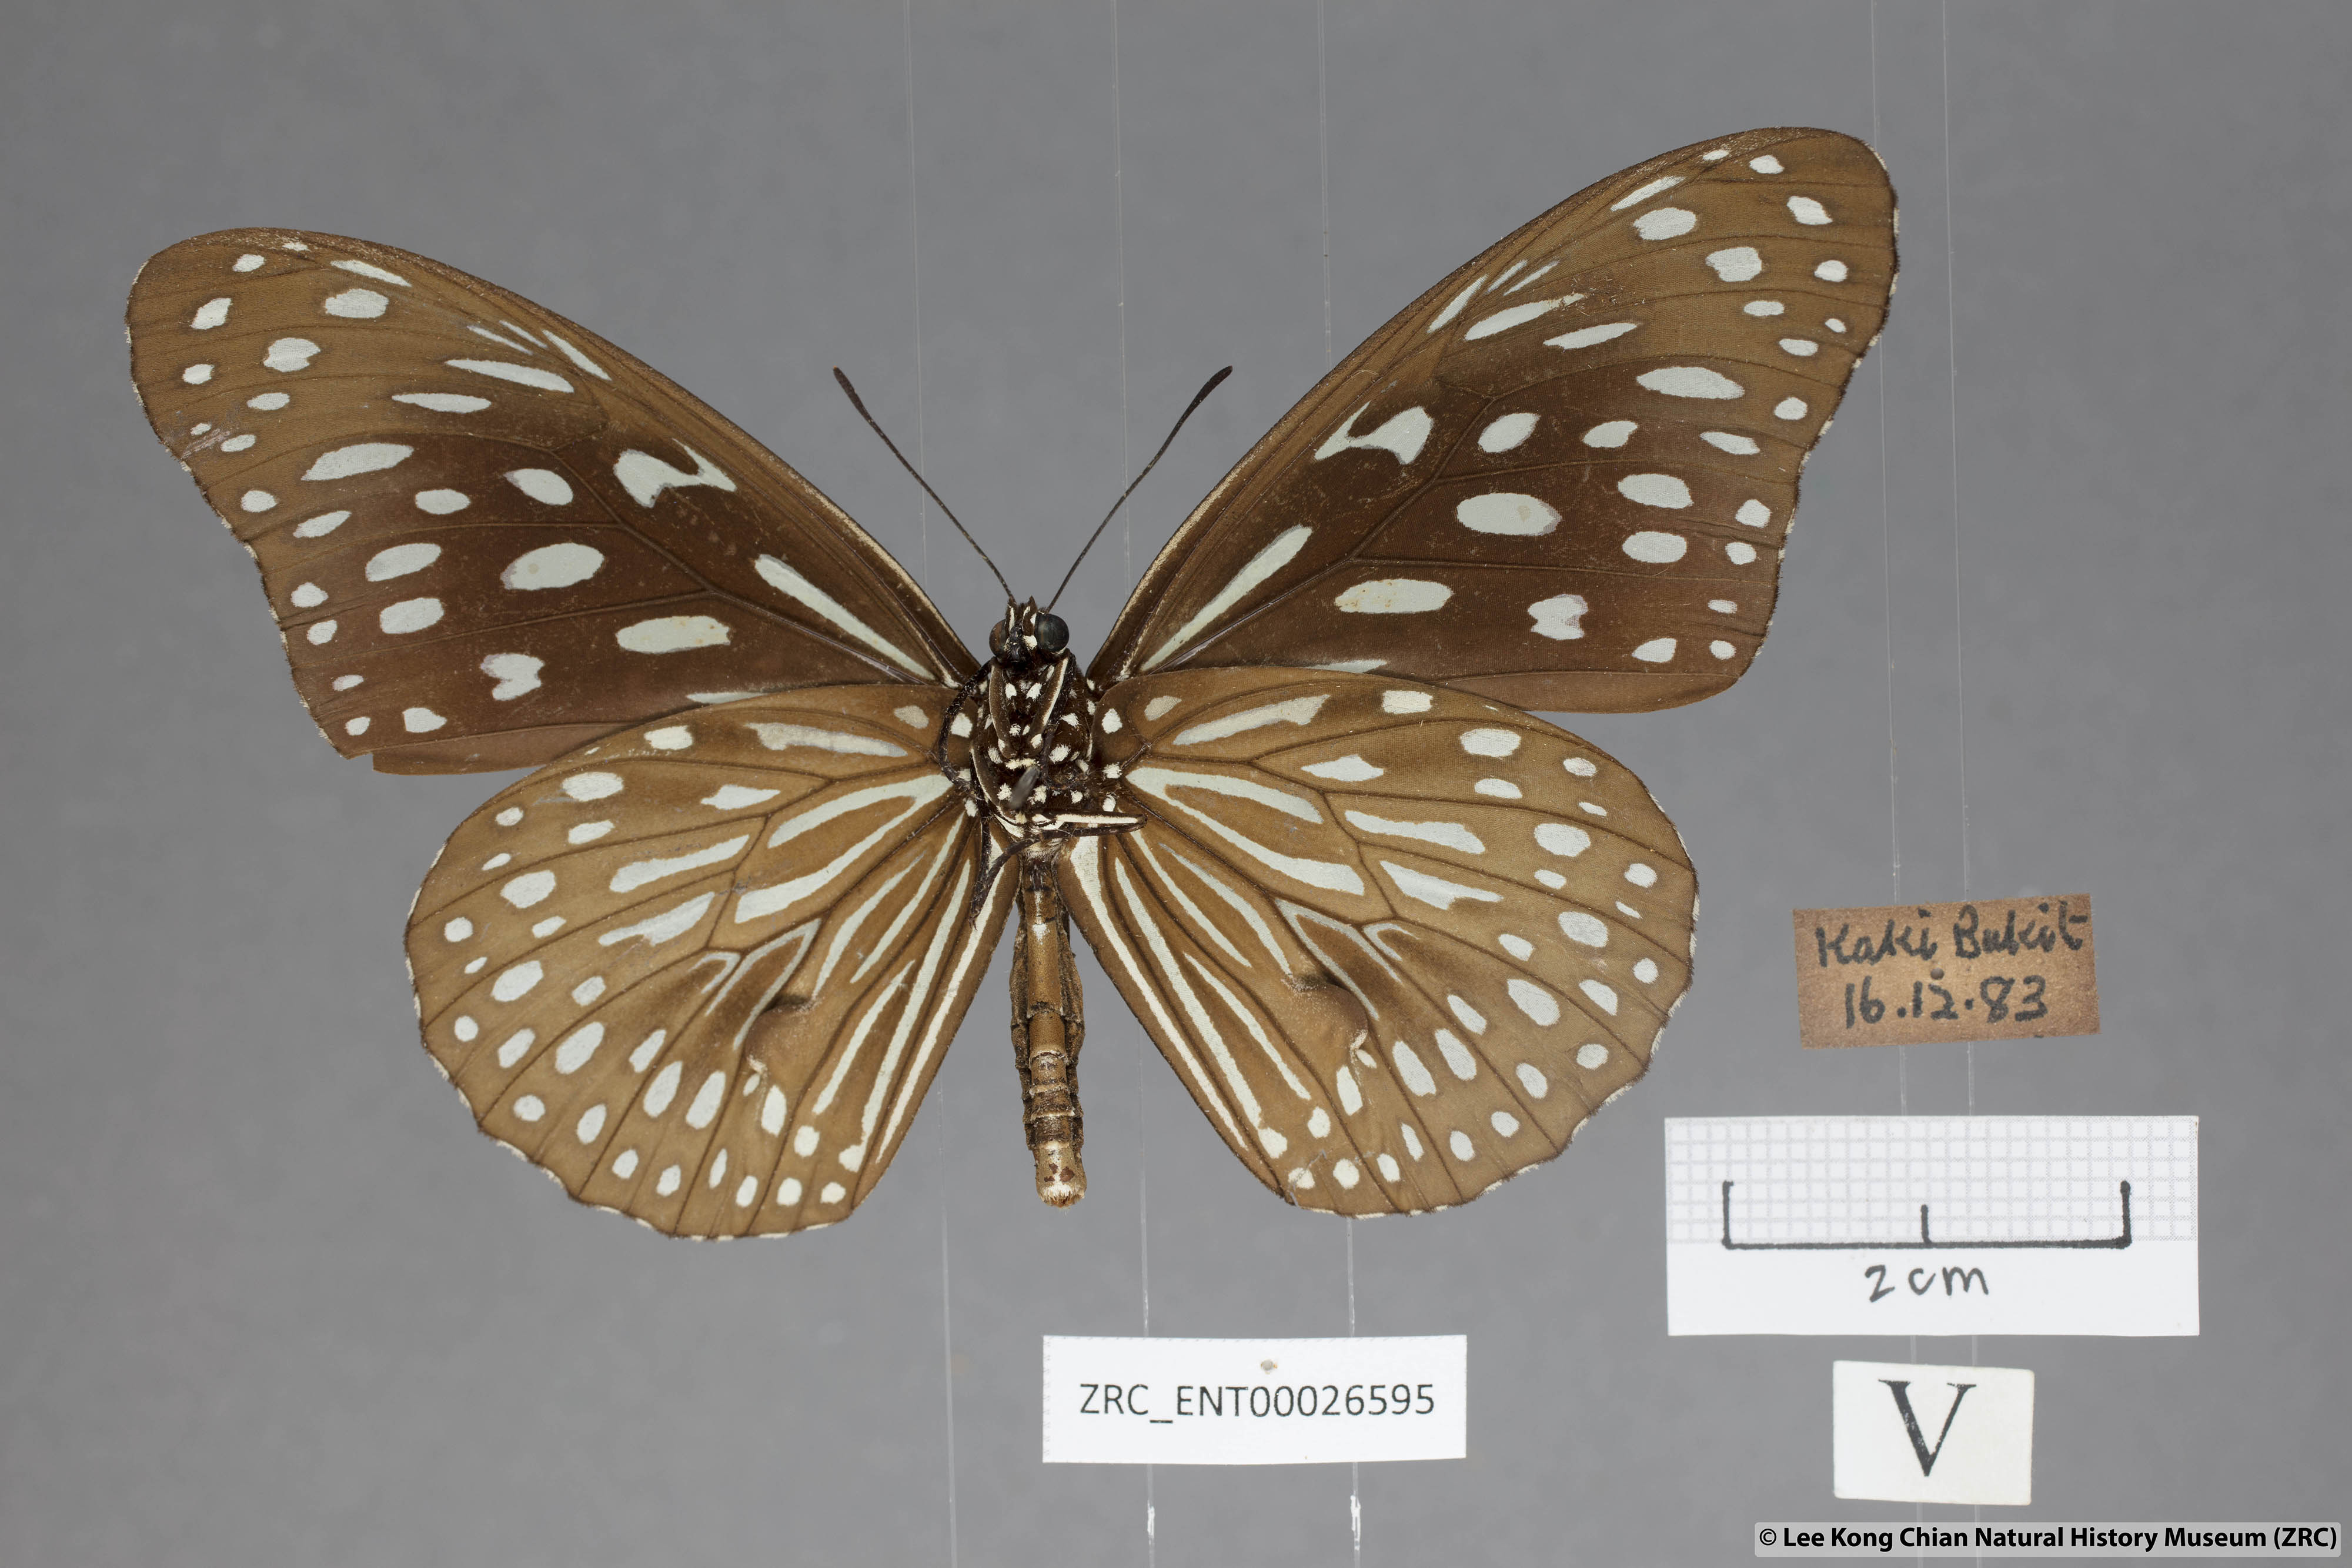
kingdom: Animalia
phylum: Arthropoda
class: Insecta
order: Lepidoptera
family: Nymphalidae
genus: Tirumala
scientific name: Tirumala septentrionis
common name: Dark blue tiger butterfly
